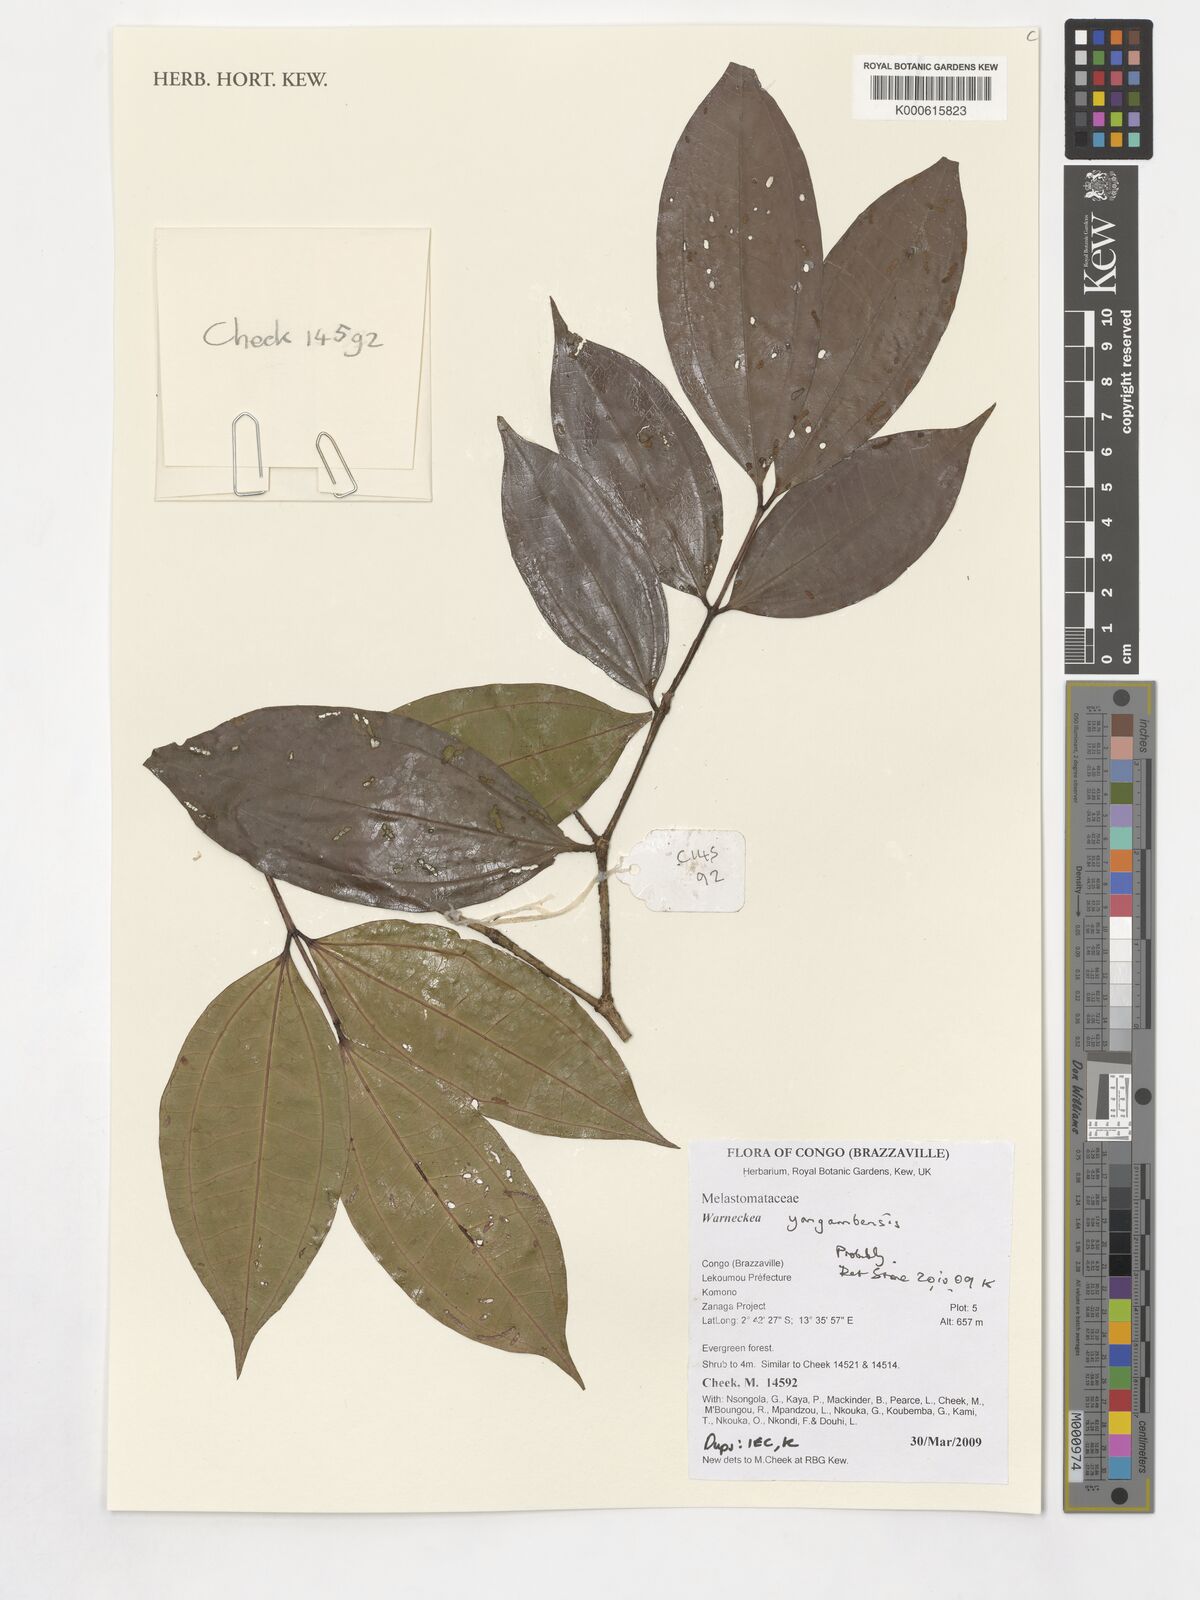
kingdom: Plantae
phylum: Tracheophyta
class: Magnoliopsida
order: Myrtales
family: Melastomataceae
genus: Warneckea
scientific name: Warneckea yangambensis
